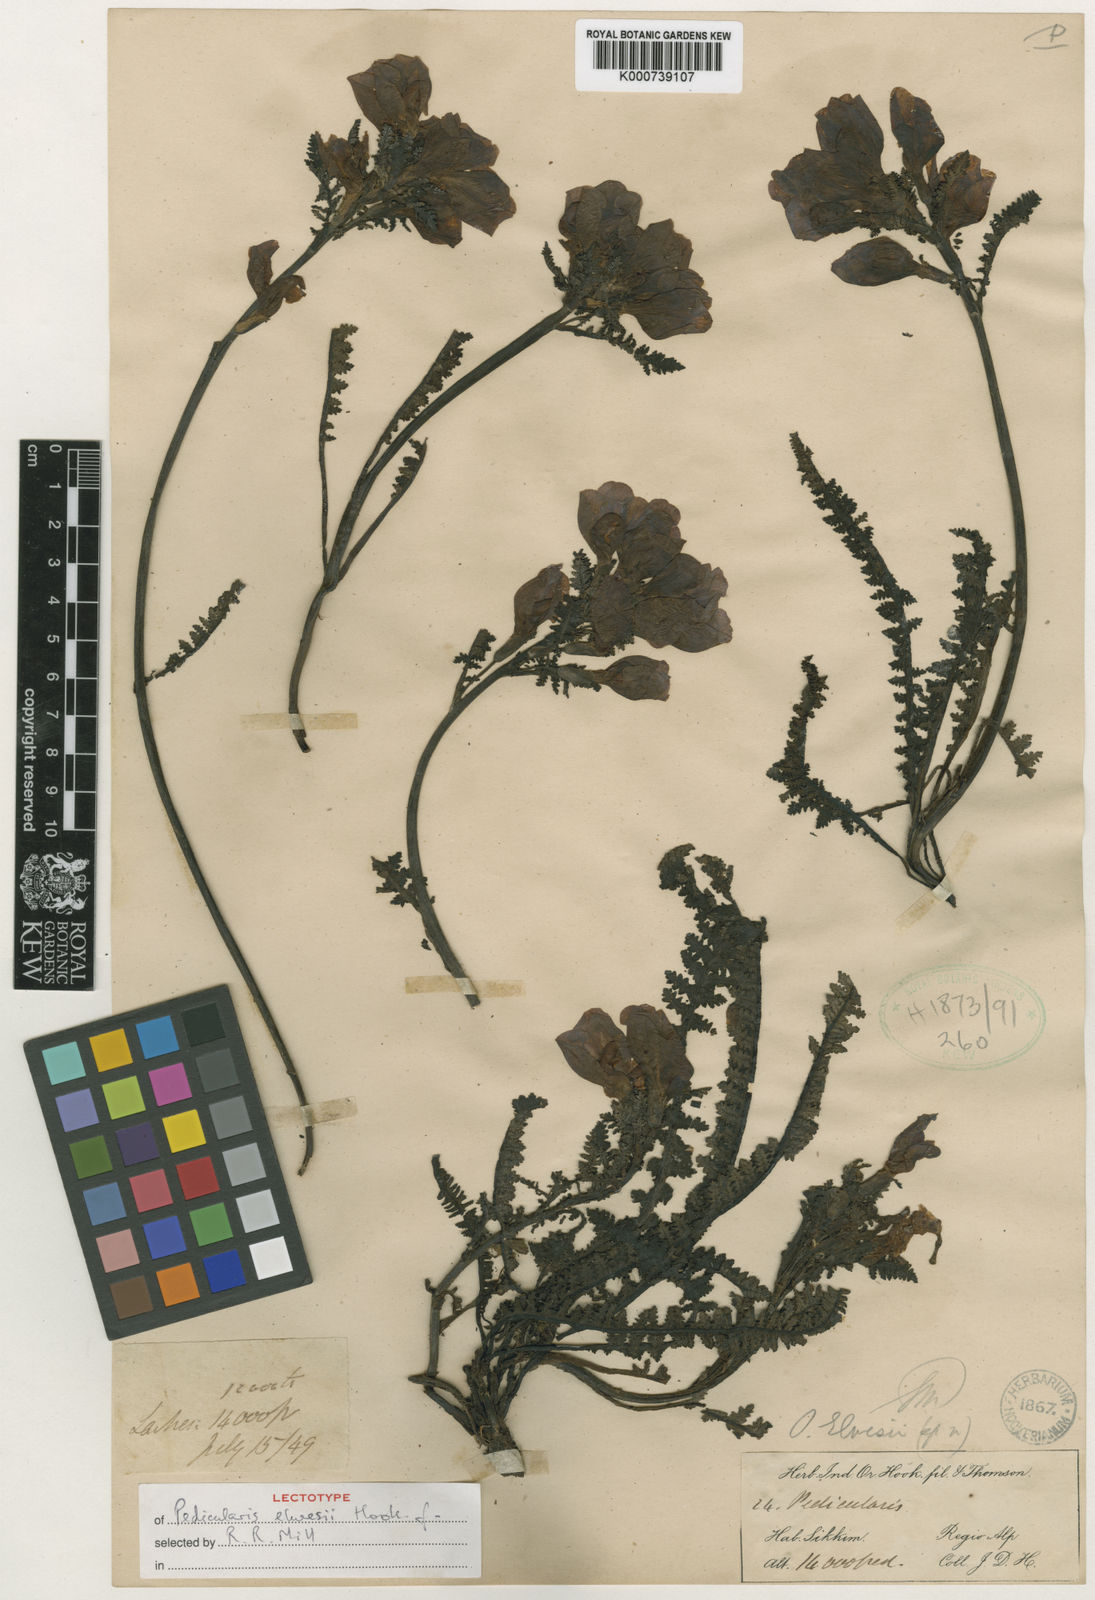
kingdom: Plantae
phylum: Tracheophyta
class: Magnoliopsida
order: Lamiales
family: Orobanchaceae
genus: Pedicularis
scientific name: Pedicularis elwesii
